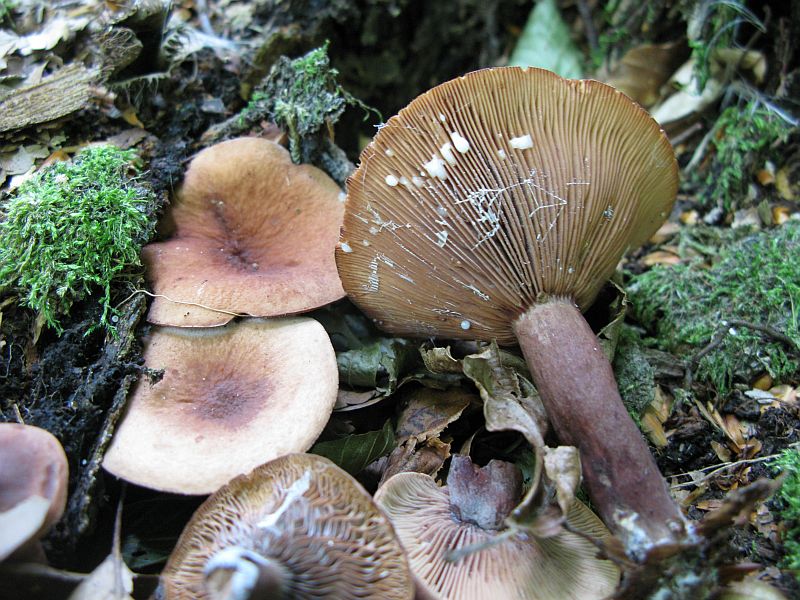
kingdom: Fungi
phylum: Basidiomycota
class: Agaricomycetes
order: Russulales
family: Russulaceae
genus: Lactarius
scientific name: Lactarius camphoratus
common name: kamfer-mælkehat
